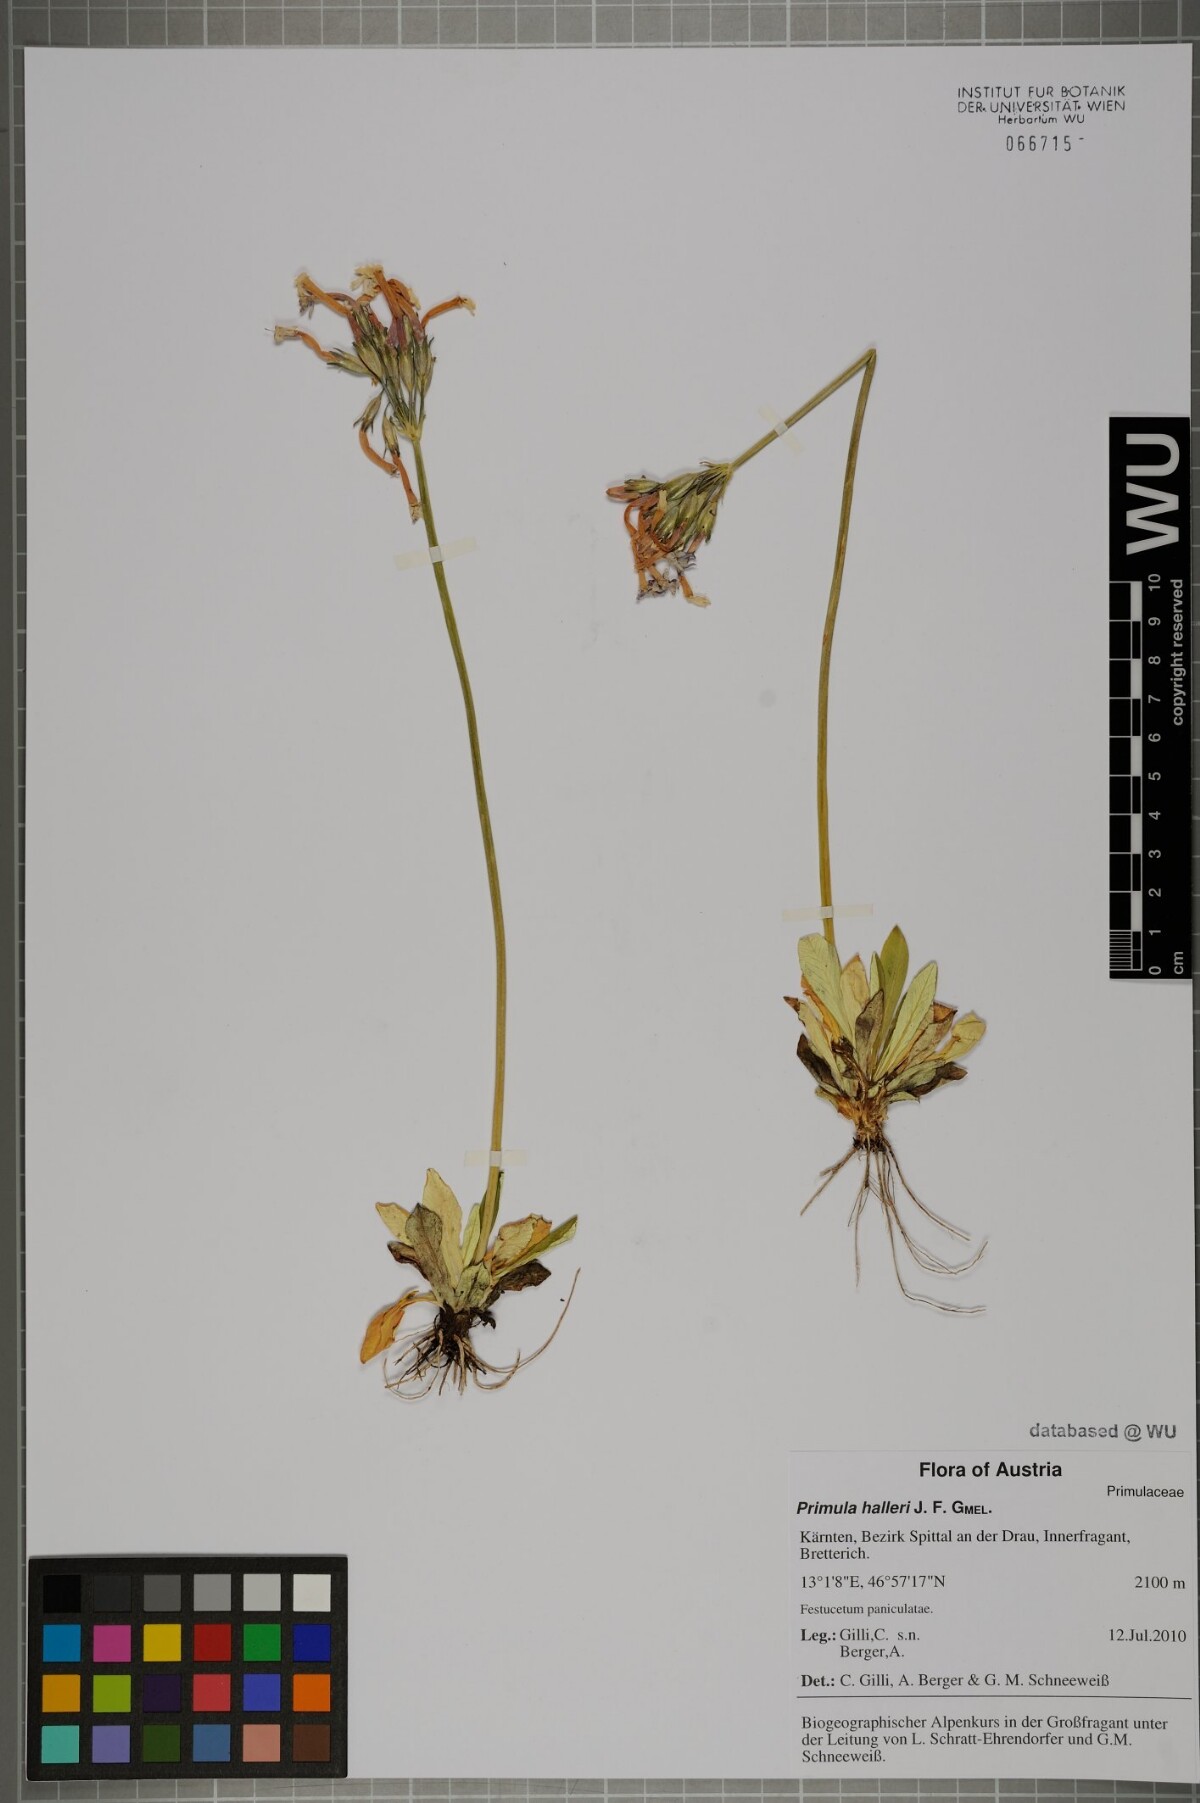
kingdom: Plantae
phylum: Tracheophyta
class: Magnoliopsida
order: Ericales
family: Primulaceae
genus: Primula
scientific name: Primula halleri
